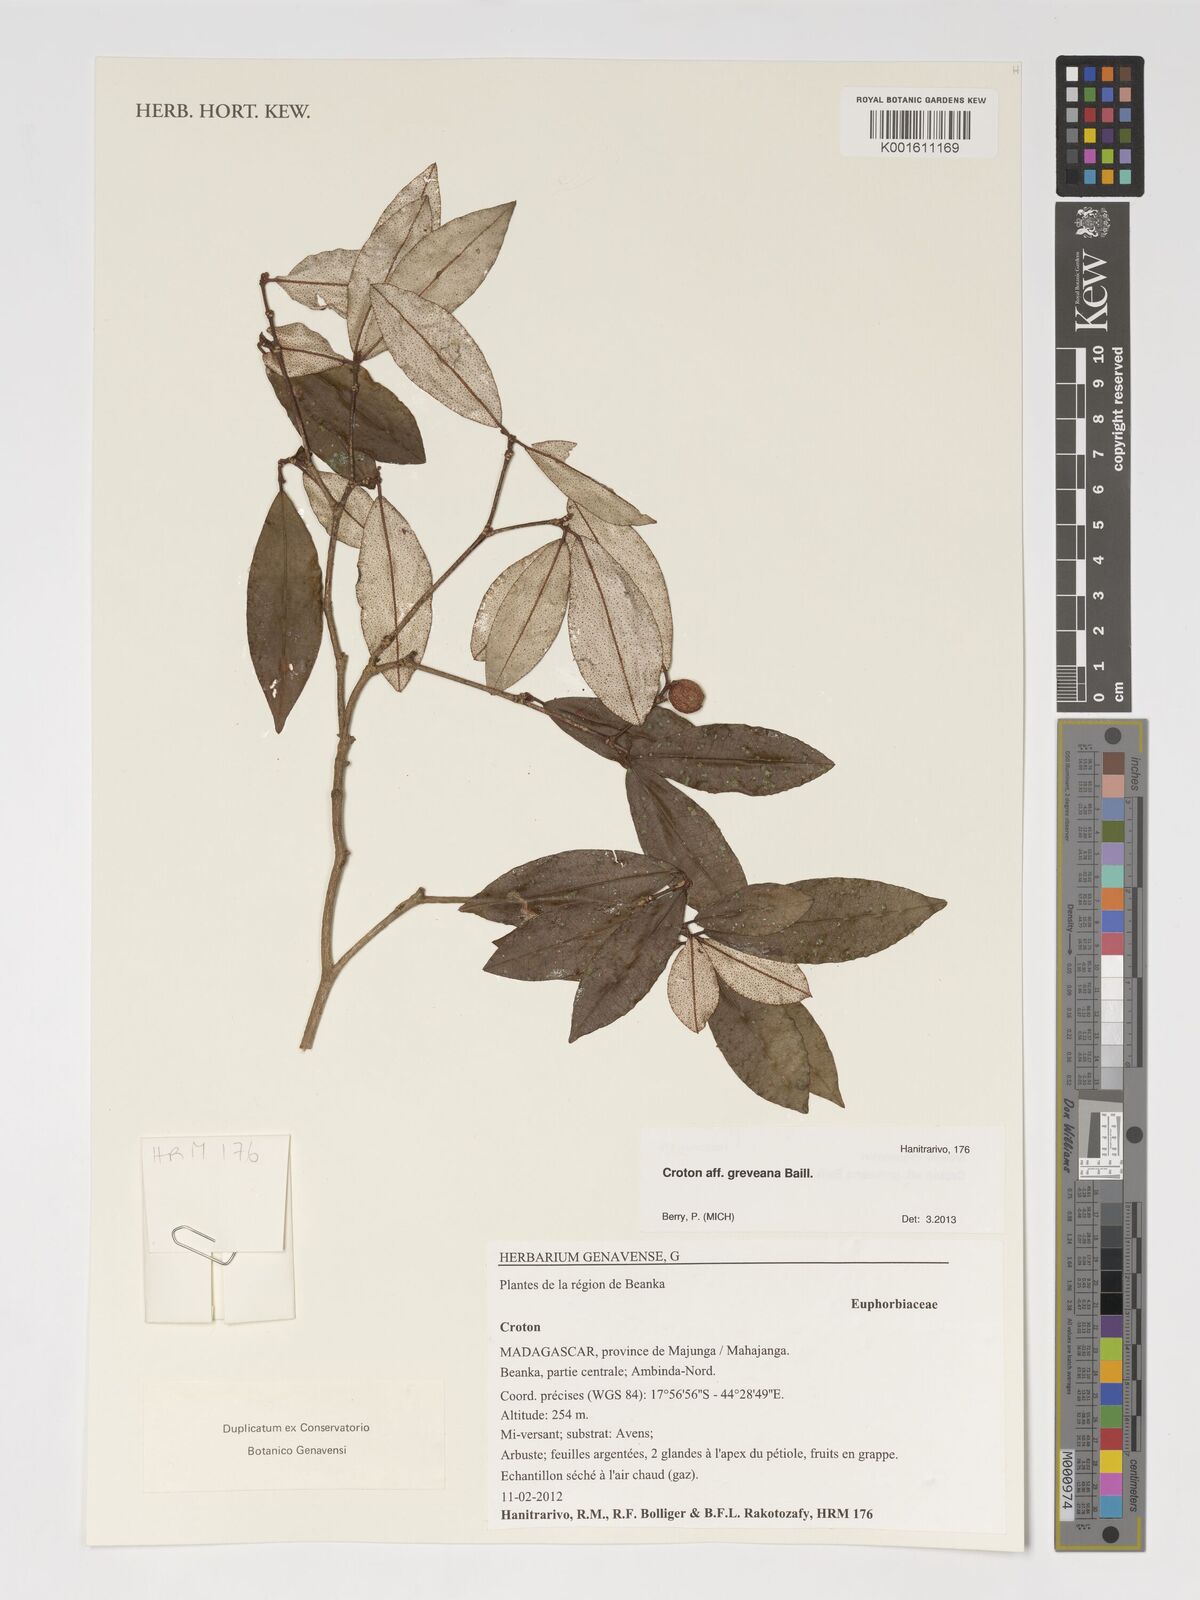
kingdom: Plantae
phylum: Tracheophyta
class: Magnoliopsida
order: Malpighiales
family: Euphorbiaceae
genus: Croton
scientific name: Croton greveanus
